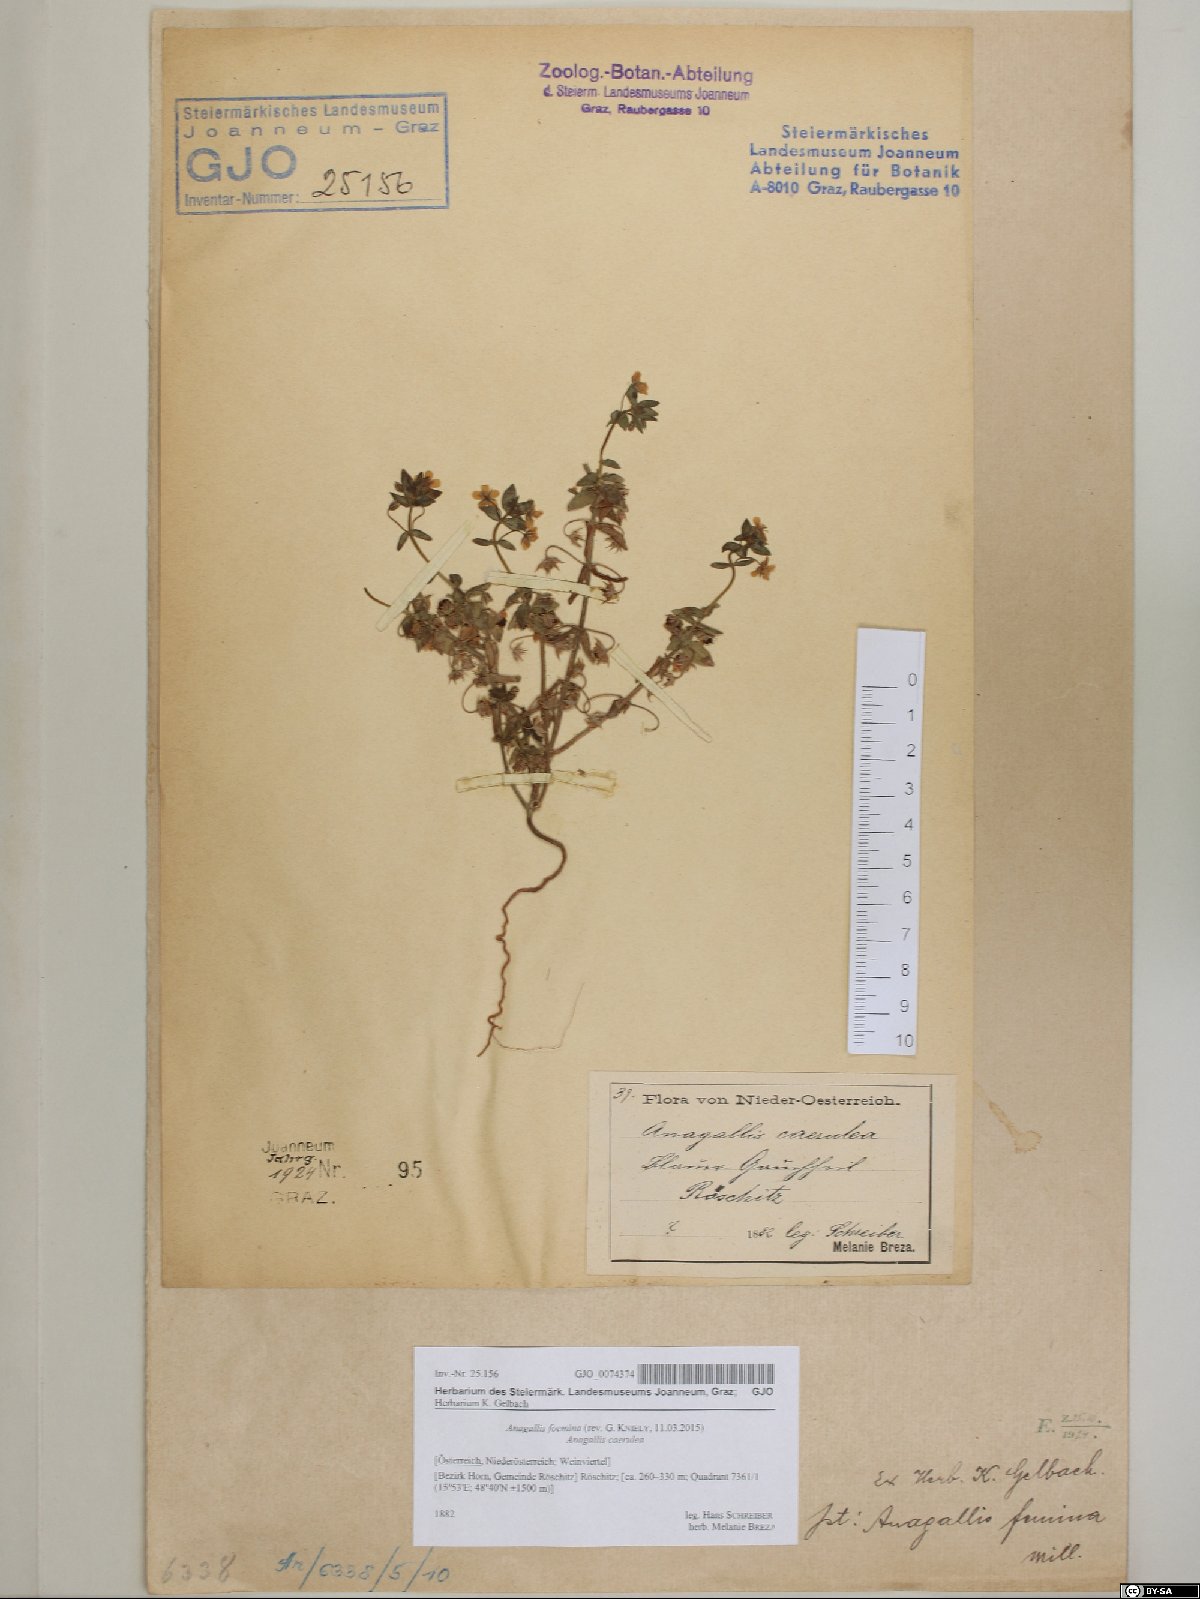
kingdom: Plantae
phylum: Tracheophyta
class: Magnoliopsida
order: Ericales
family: Primulaceae
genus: Lysimachia
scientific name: Lysimachia foemina
